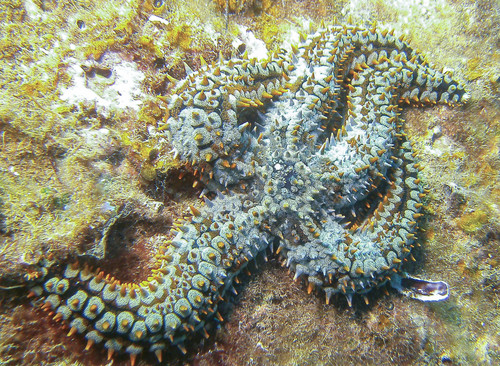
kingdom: Animalia
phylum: Echinodermata
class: Asteroidea
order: Forcipulatida
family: Asteriidae
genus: Marthasterias
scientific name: Marthasterias glacialis
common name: Spiny starfish
